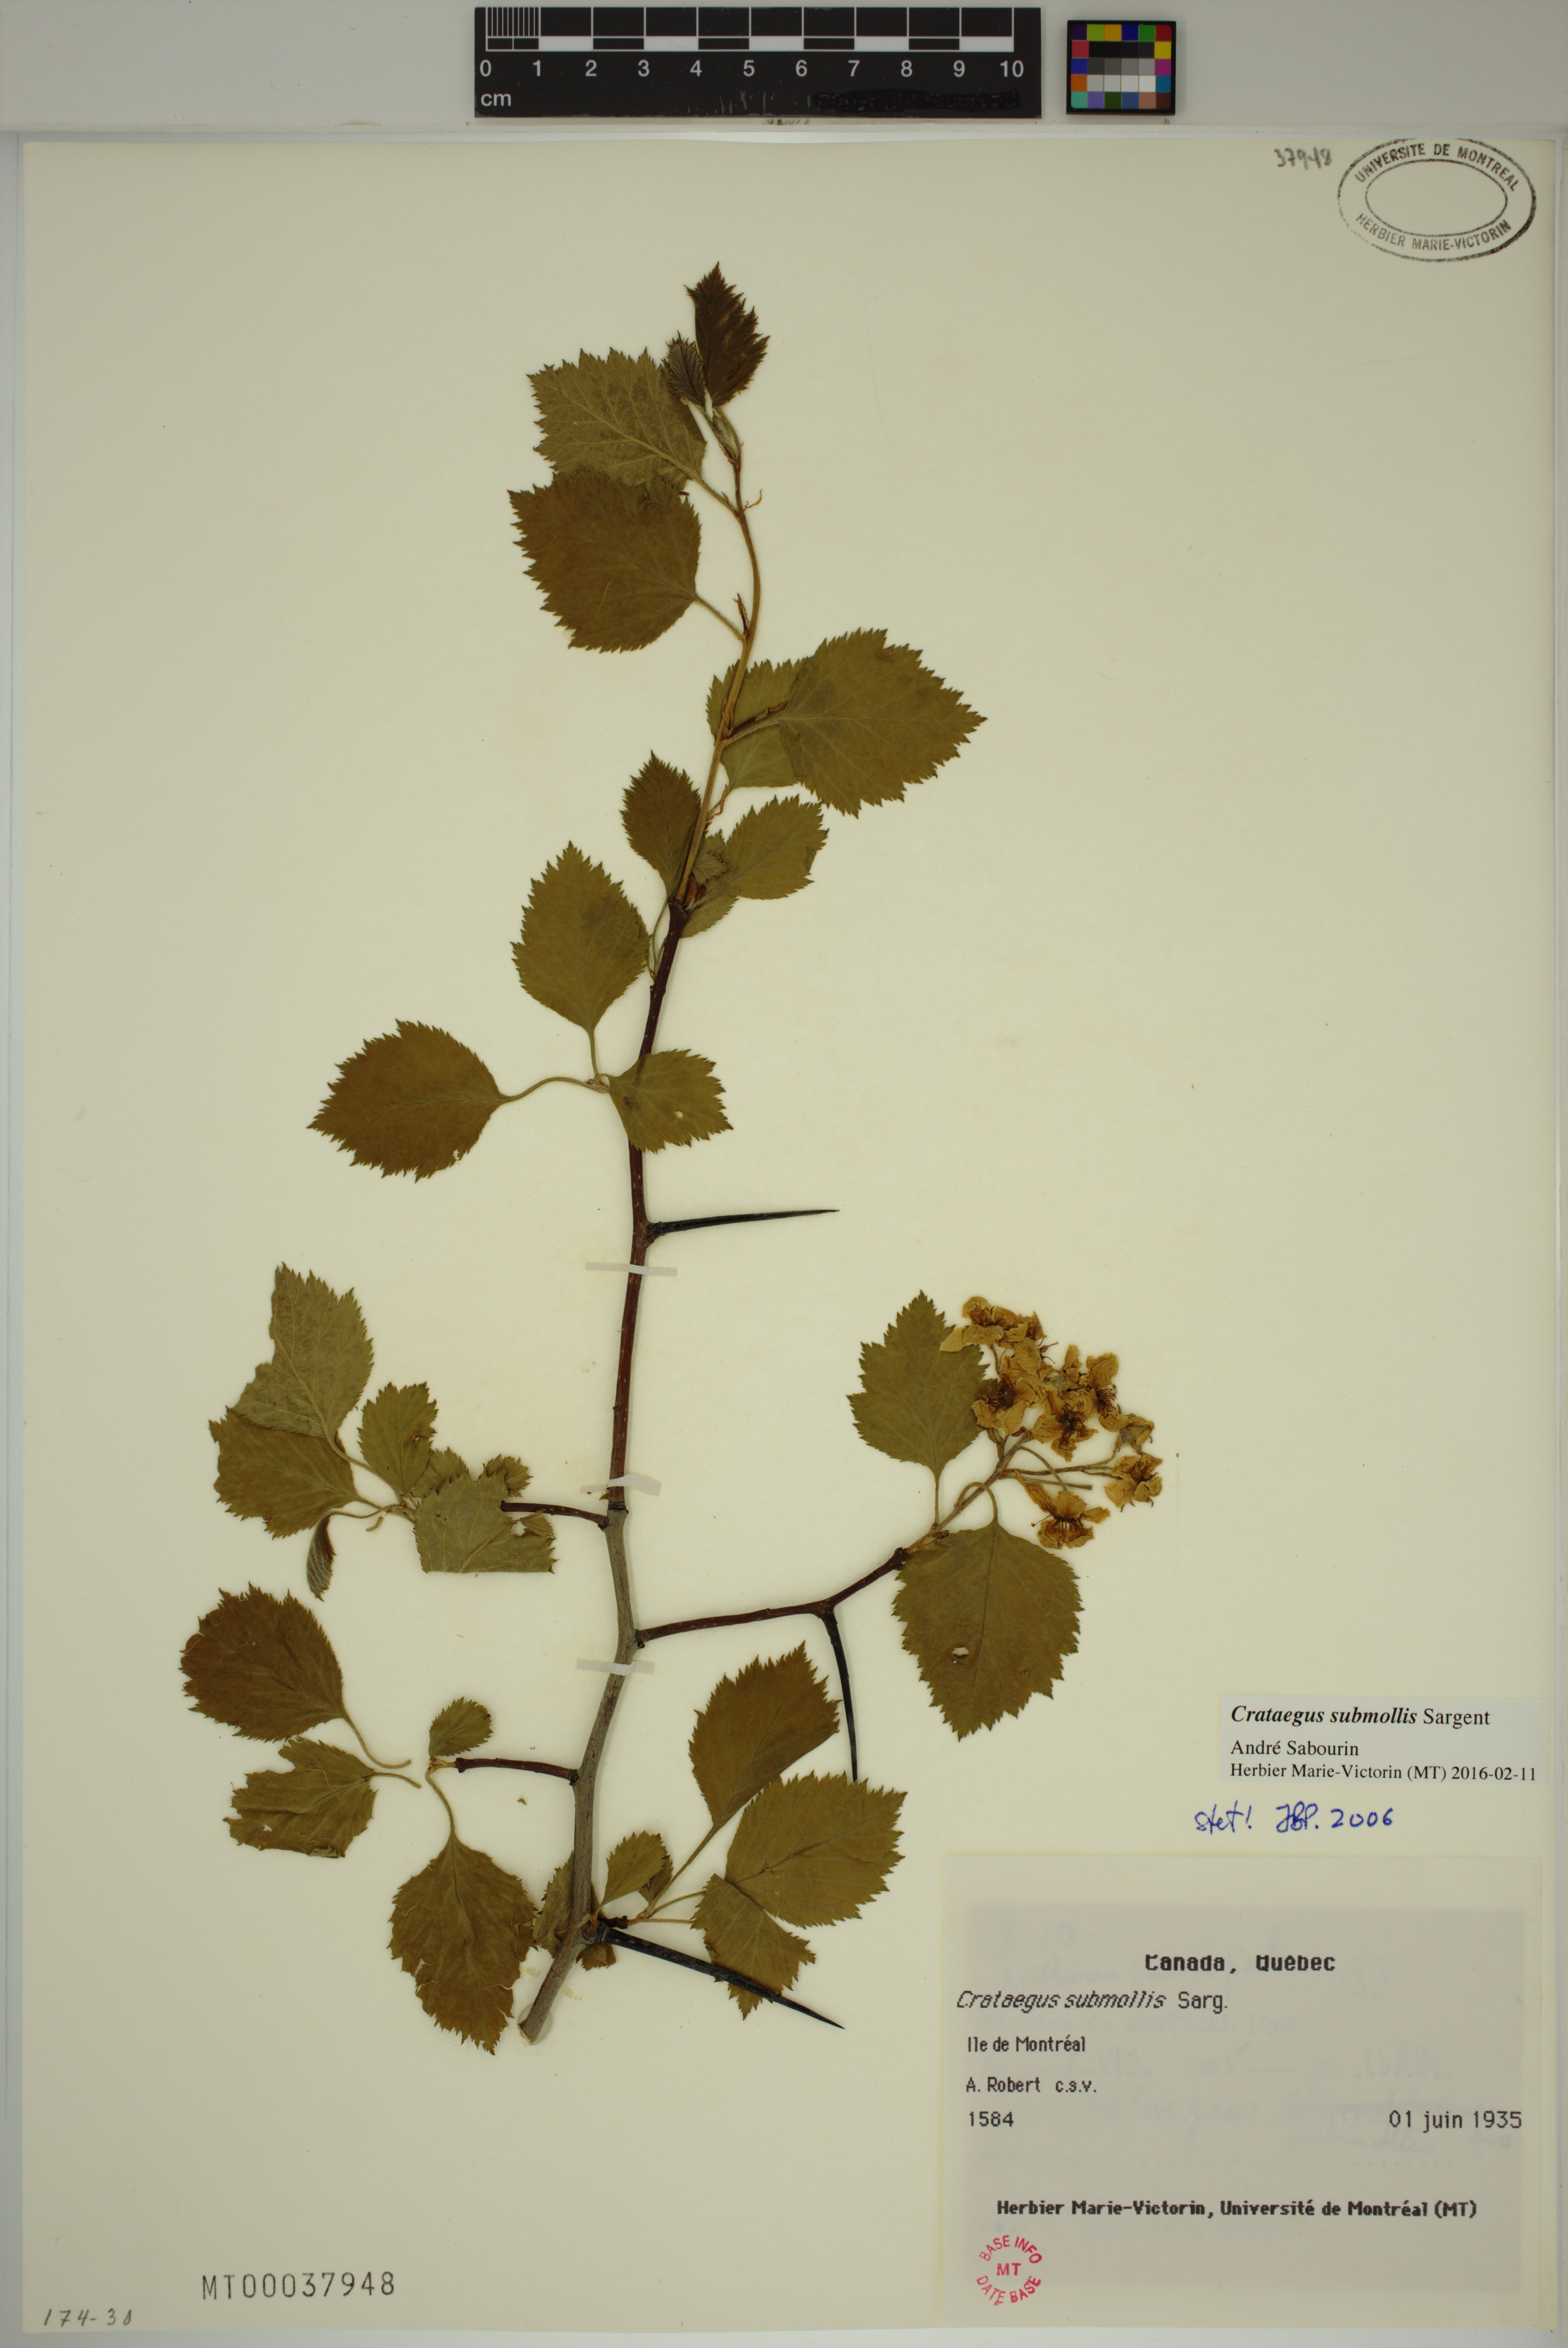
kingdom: Plantae
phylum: Tracheophyta
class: Magnoliopsida
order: Rosales
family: Rosaceae
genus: Crataegus
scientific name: Crataegus submollis
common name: Hairy cockspurthorn
